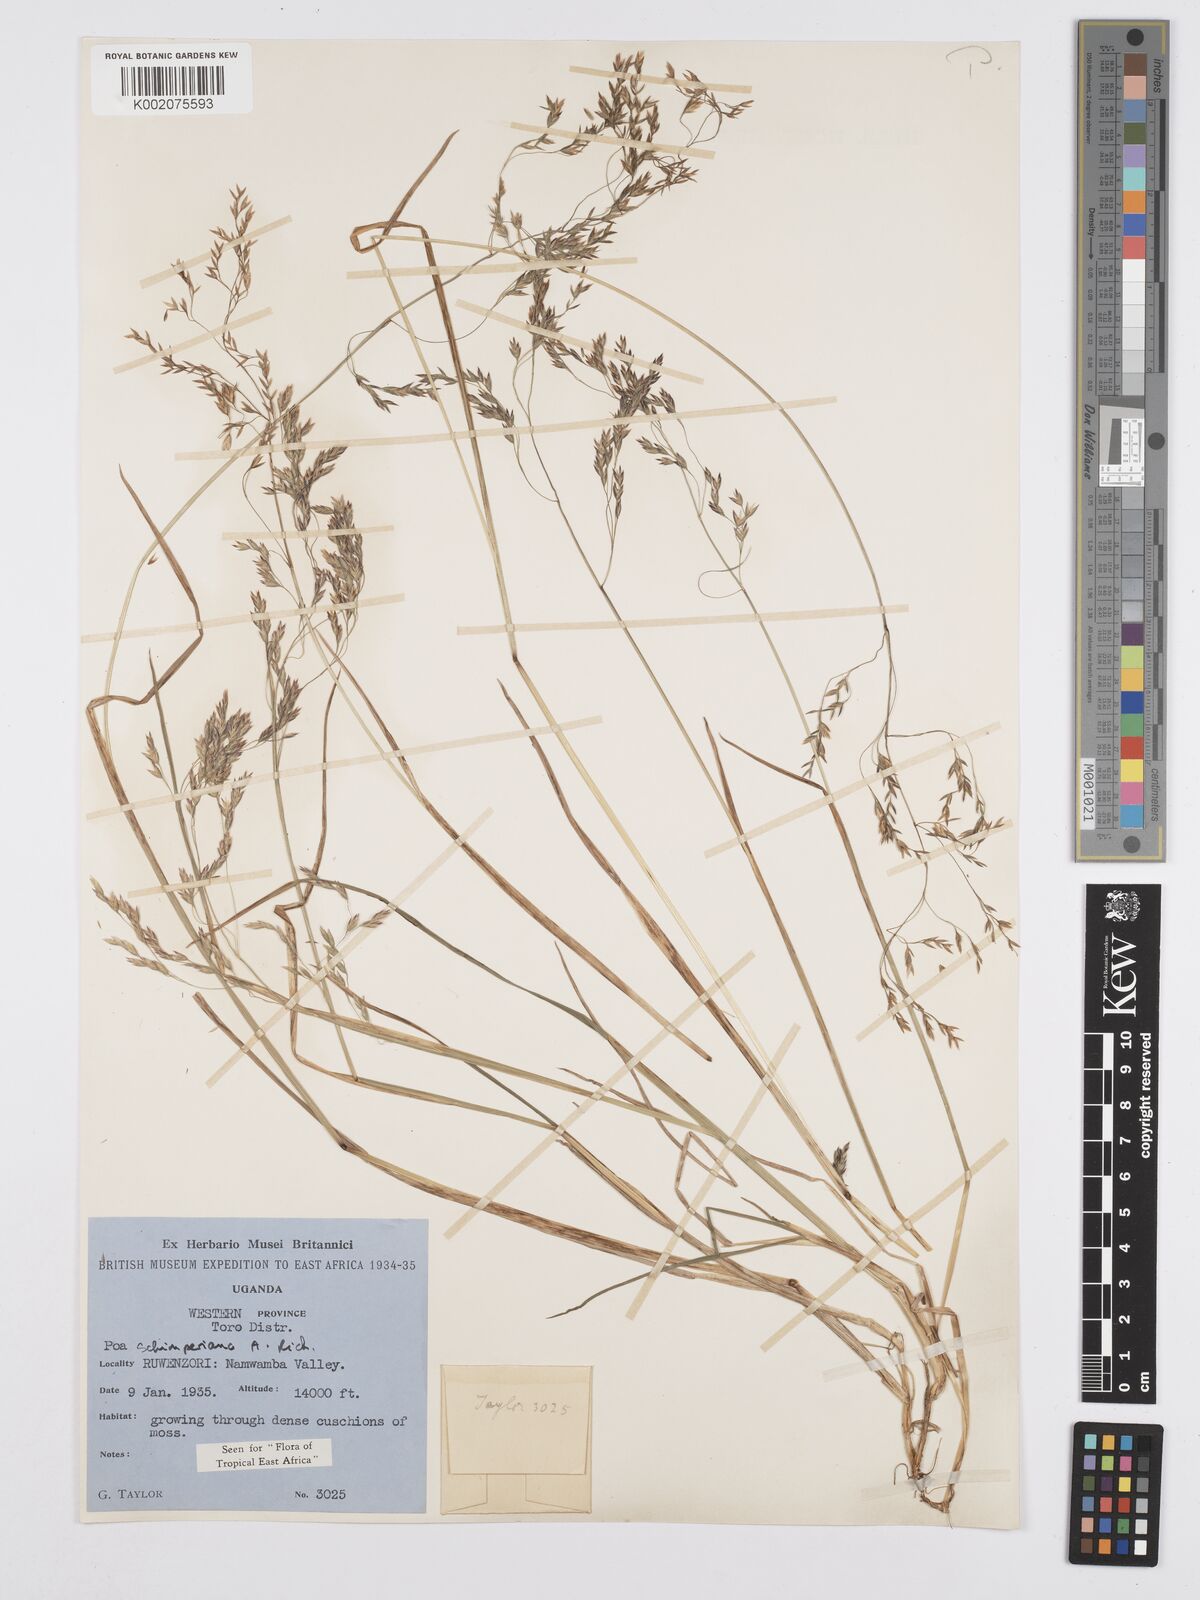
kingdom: Plantae
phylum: Tracheophyta
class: Liliopsida
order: Poales
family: Poaceae
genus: Poa
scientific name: Poa schimperiana
